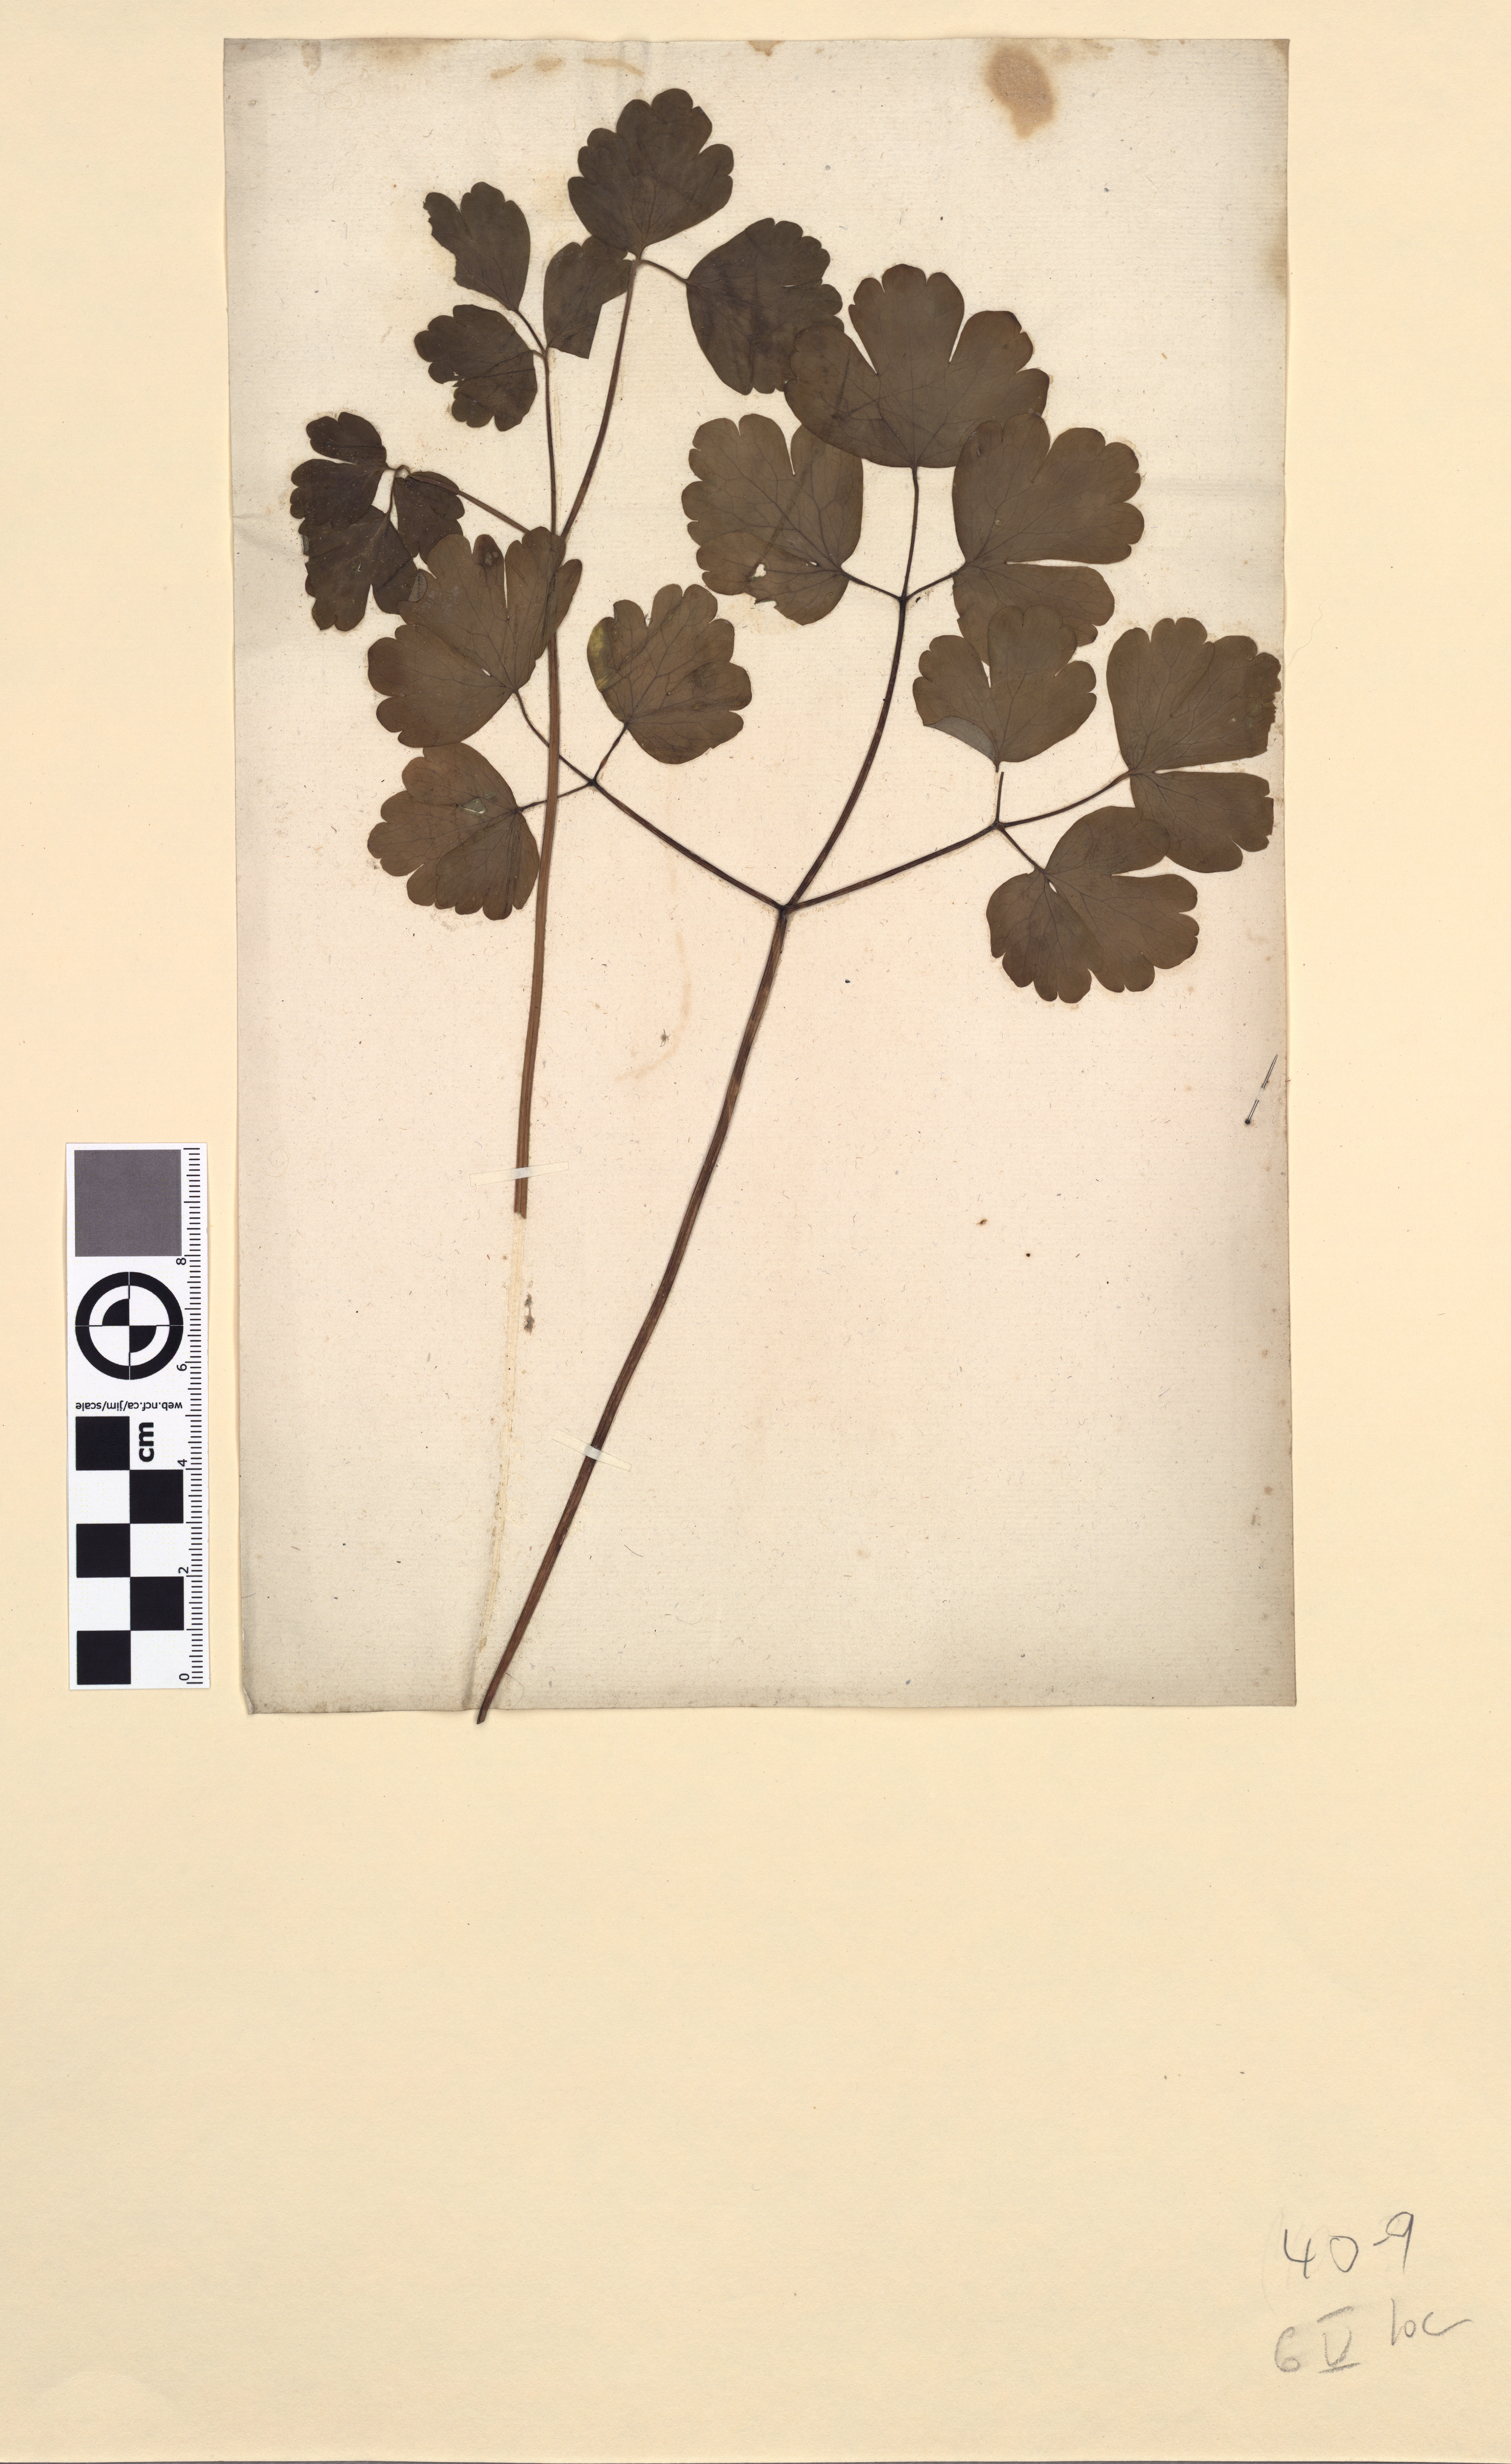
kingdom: Plantae
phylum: Tracheophyta
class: Magnoliopsida
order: Ranunculales
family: Ranunculaceae
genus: Thalictrum
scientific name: Thalictrum flavum
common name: Common meadow-rue
